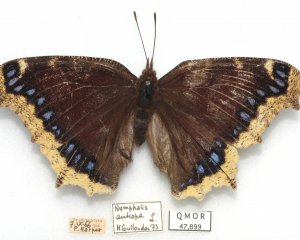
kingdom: Animalia
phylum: Arthropoda
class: Insecta
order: Lepidoptera
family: Nymphalidae
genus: Nymphalis
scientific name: Nymphalis antiopa
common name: Mourning Cloak
